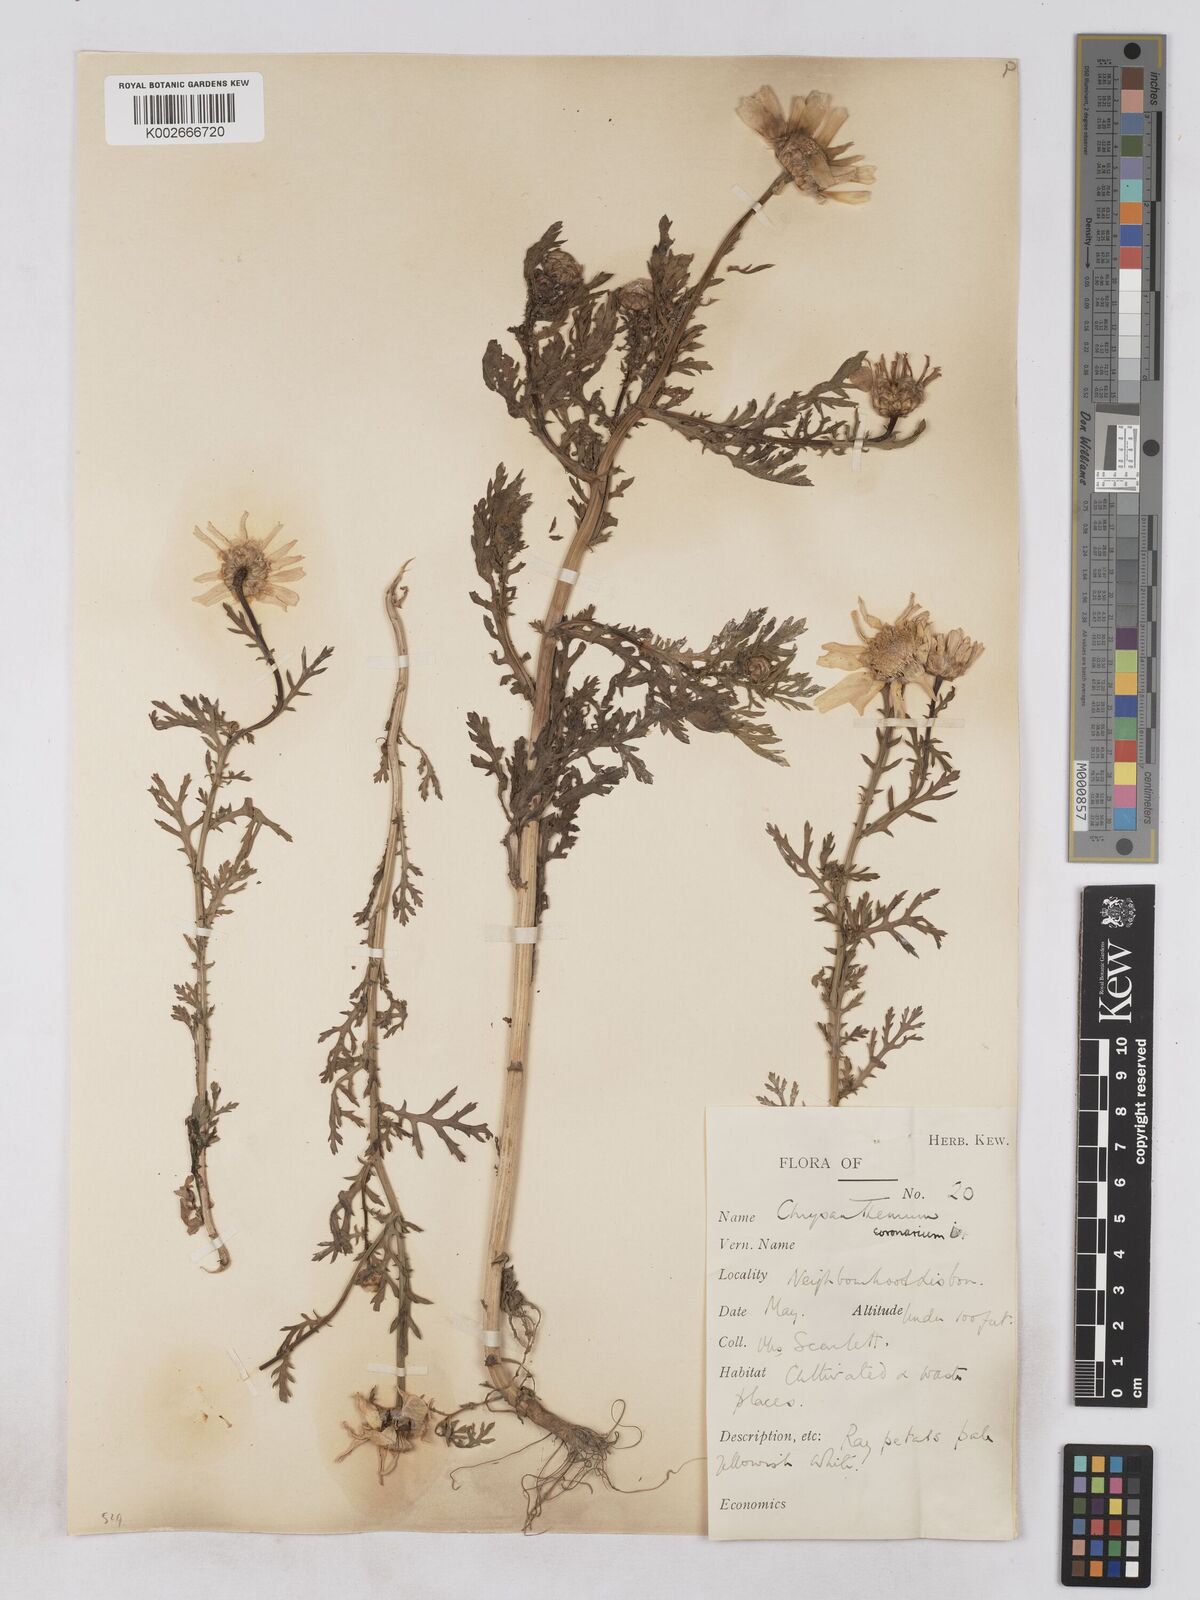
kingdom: Plantae
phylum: Tracheophyta
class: Magnoliopsida
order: Asterales
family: Asteraceae
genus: Glebionis
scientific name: Glebionis coronaria
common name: Crowndaisy
